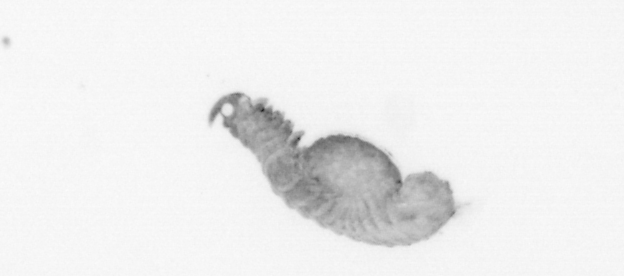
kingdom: Animalia
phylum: Annelida
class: Polychaeta
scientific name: Polychaeta
